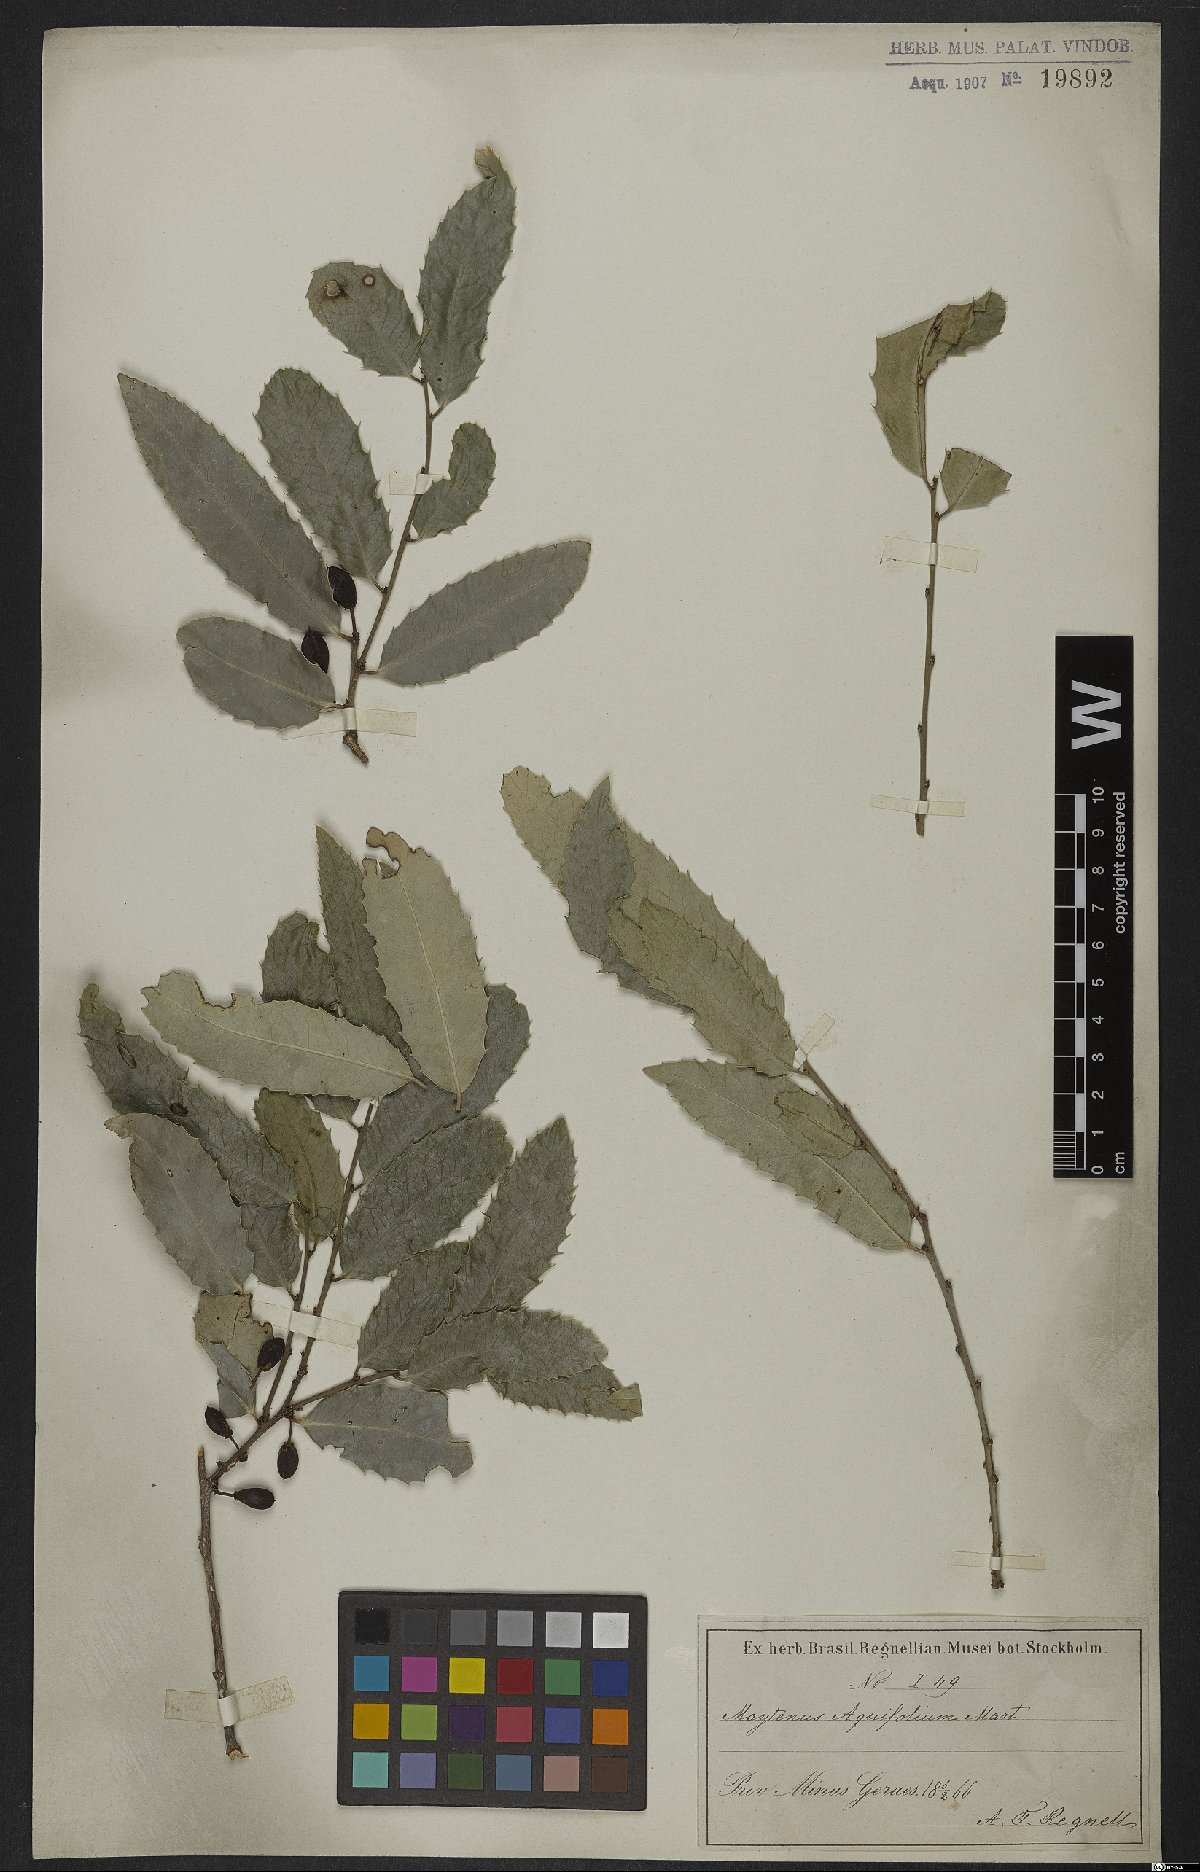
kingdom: Plantae
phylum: Tracheophyta
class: Magnoliopsida
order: Celastrales
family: Celastraceae
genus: Monteverdia
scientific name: Monteverdia aquifolium
